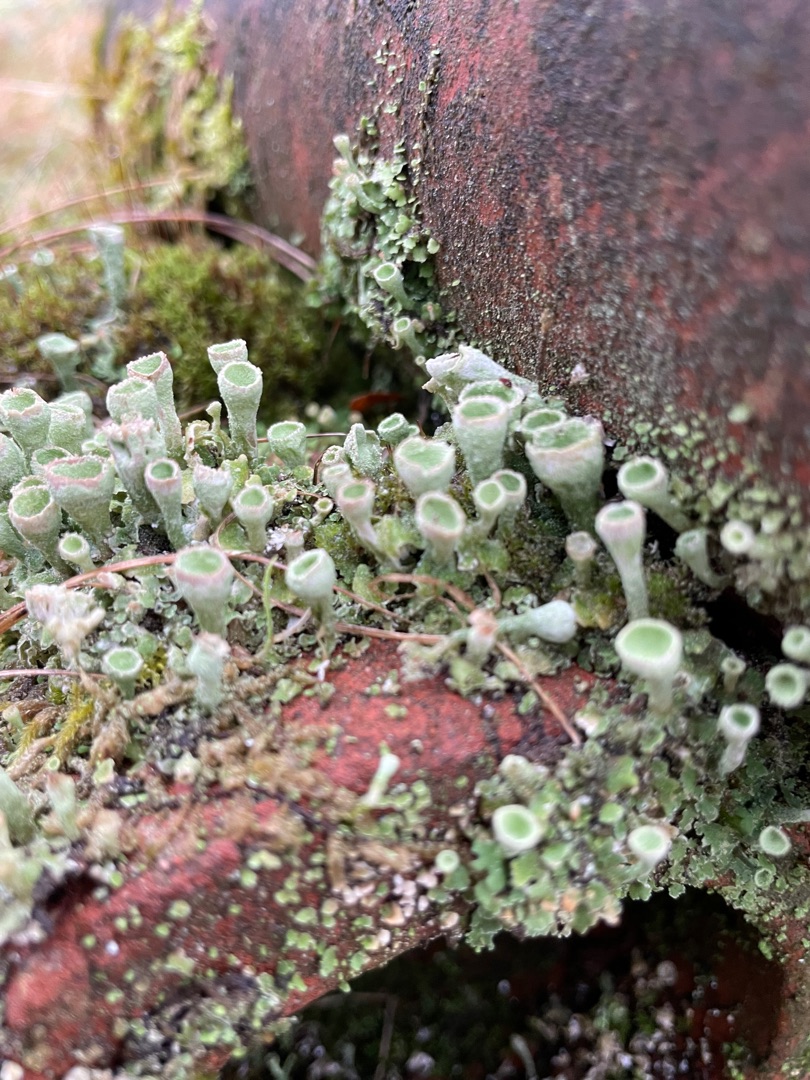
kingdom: Fungi
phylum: Ascomycota
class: Lecanoromycetes
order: Lecanorales
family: Cladoniaceae
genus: Cladonia
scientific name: Cladonia humilis
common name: Lav bægerlav
